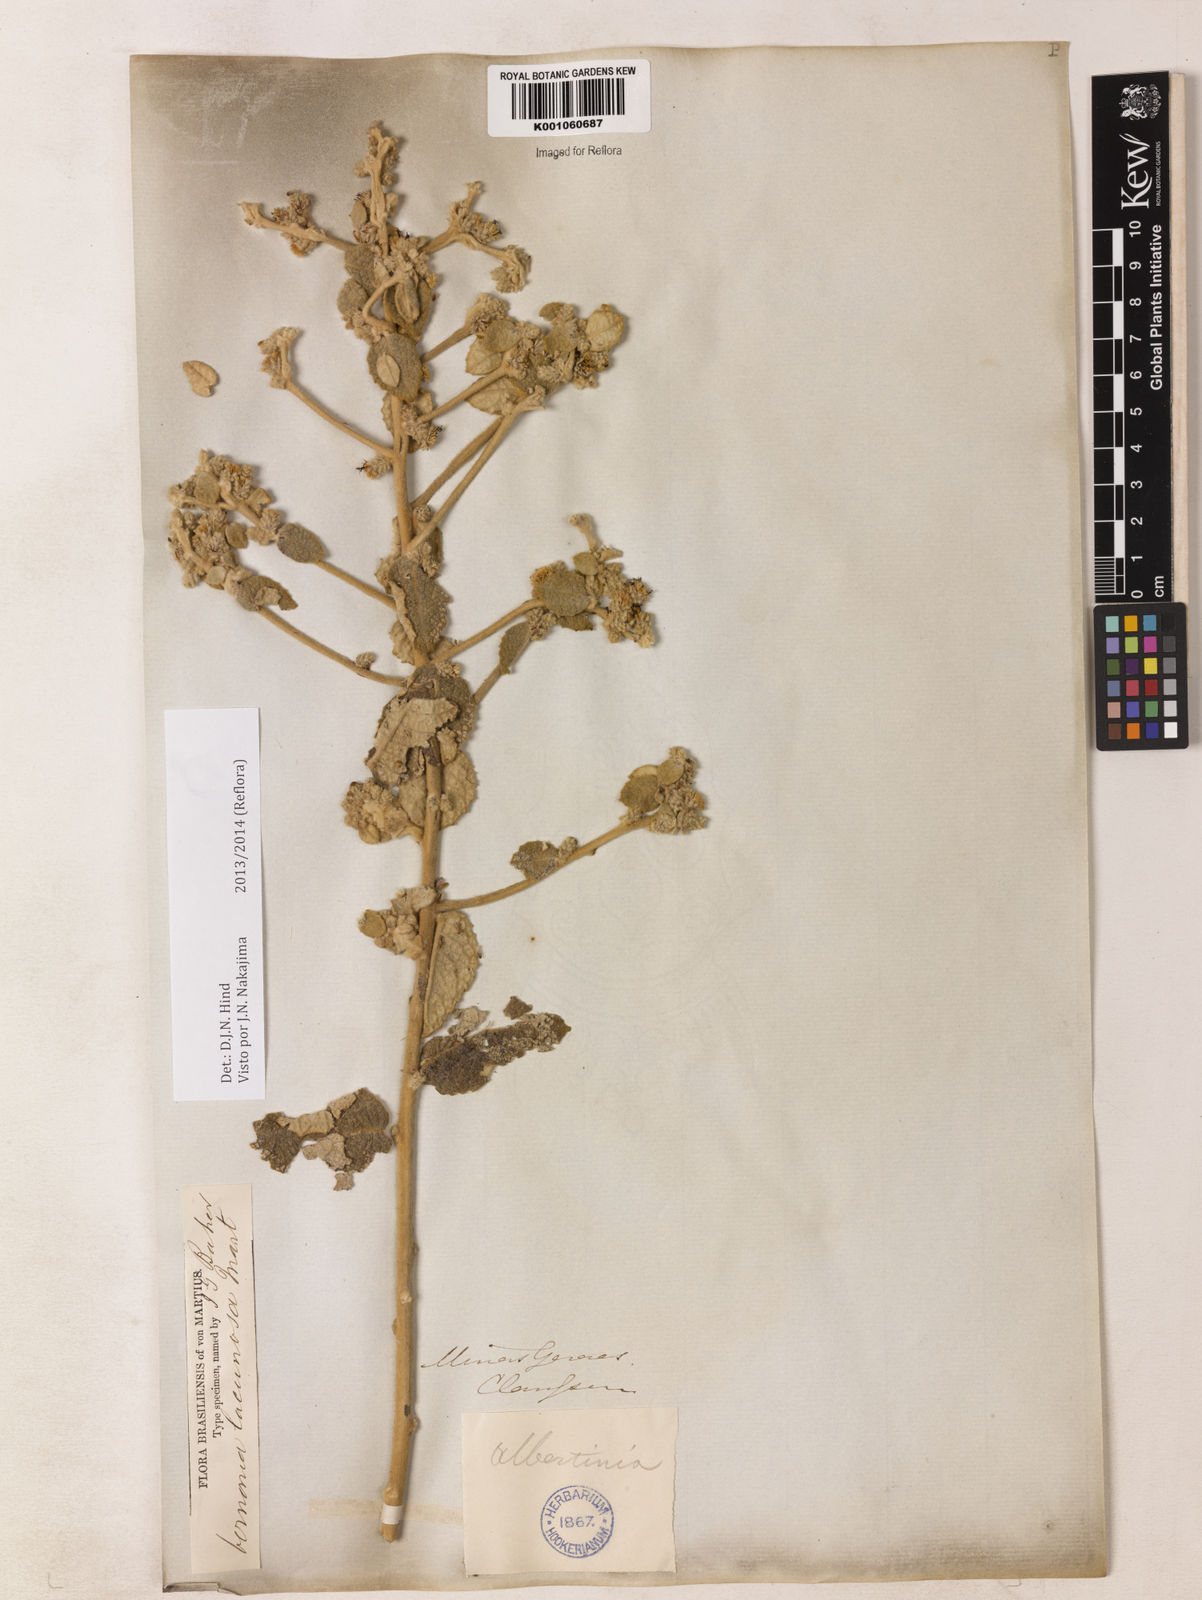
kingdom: Plantae
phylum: Tracheophyta
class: Magnoliopsida
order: Asterales
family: Asteraceae
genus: Lessingianthus
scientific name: Lessingianthus lacunosus
